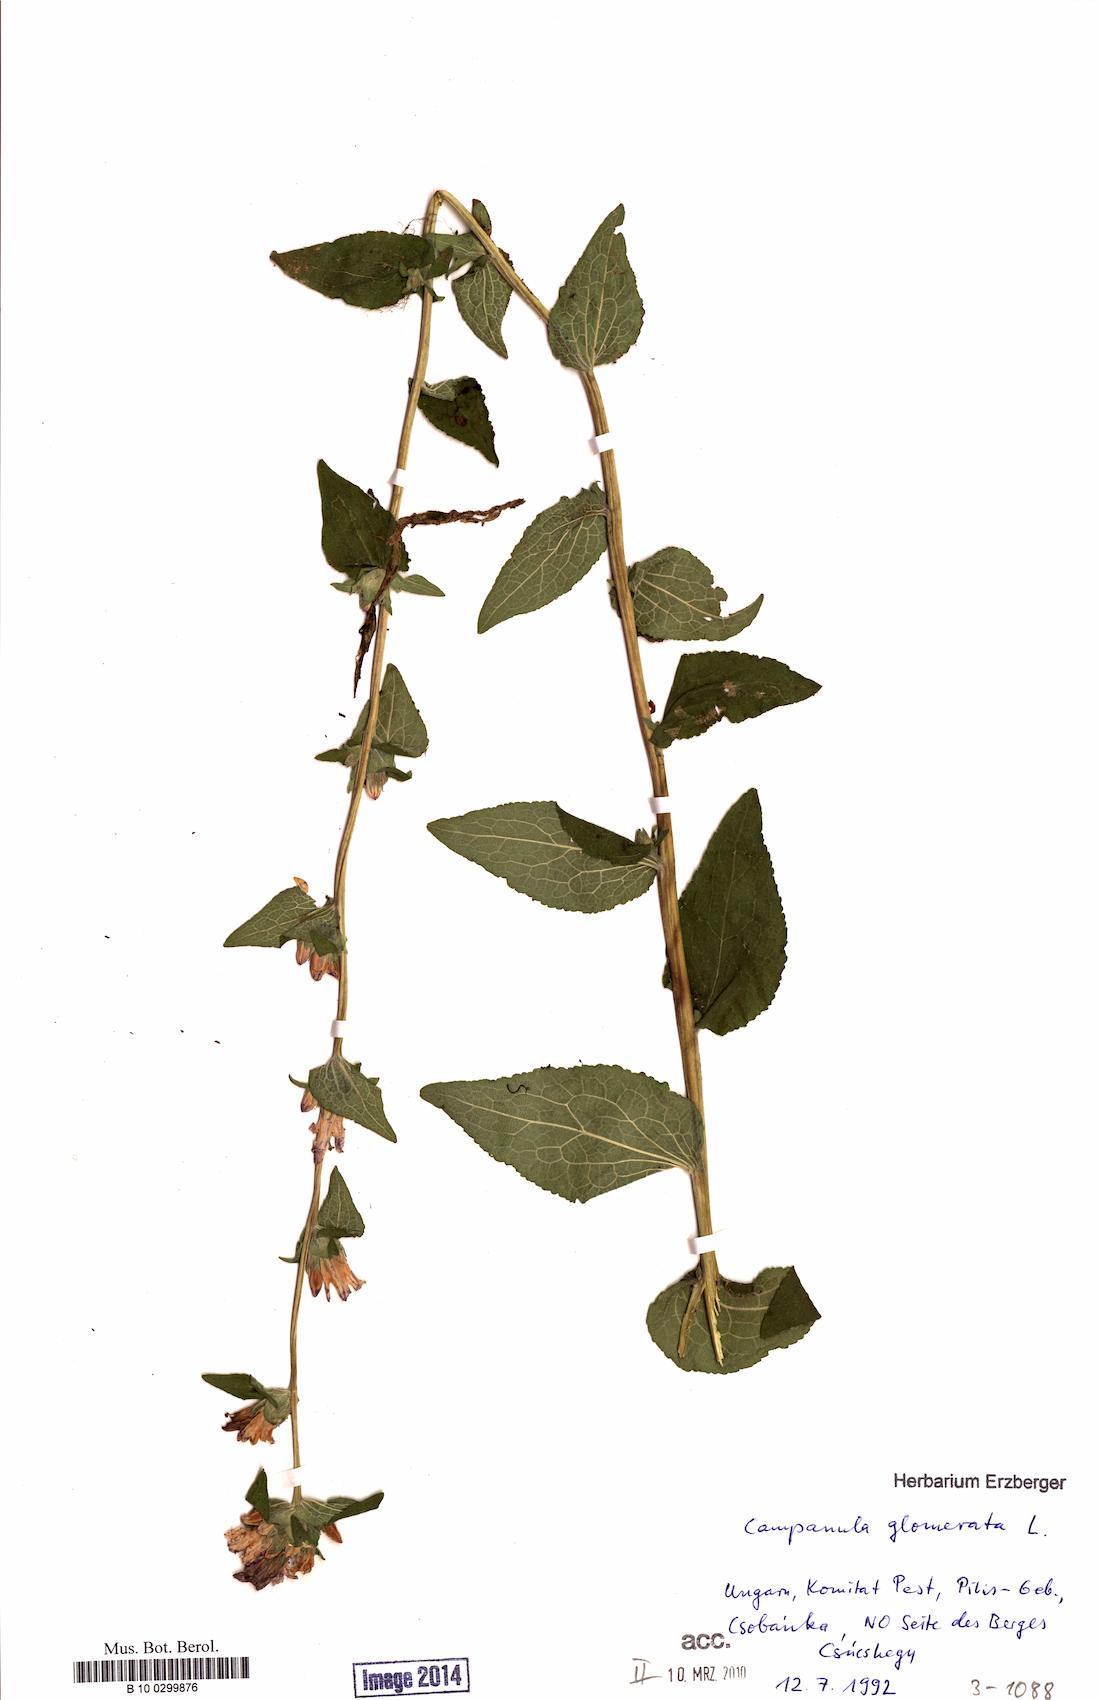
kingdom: Plantae
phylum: Tracheophyta
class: Magnoliopsida
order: Asterales
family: Campanulaceae
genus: Campanula
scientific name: Campanula glomerata
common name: Clustered bellflower
